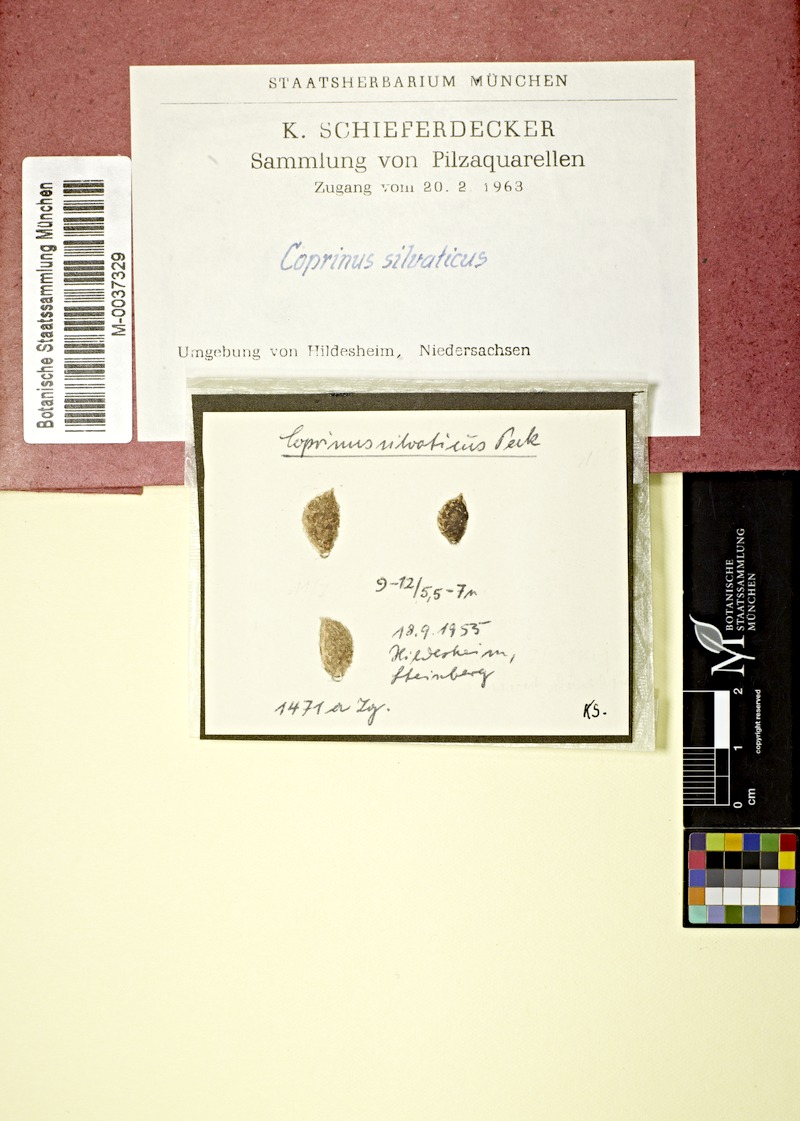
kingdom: Fungi
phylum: Basidiomycota
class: Agaricomycetes
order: Agaricales
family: Psathyrellaceae
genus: Coprinellus
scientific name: Coprinellus silvaticus
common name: Woodland inkcap
